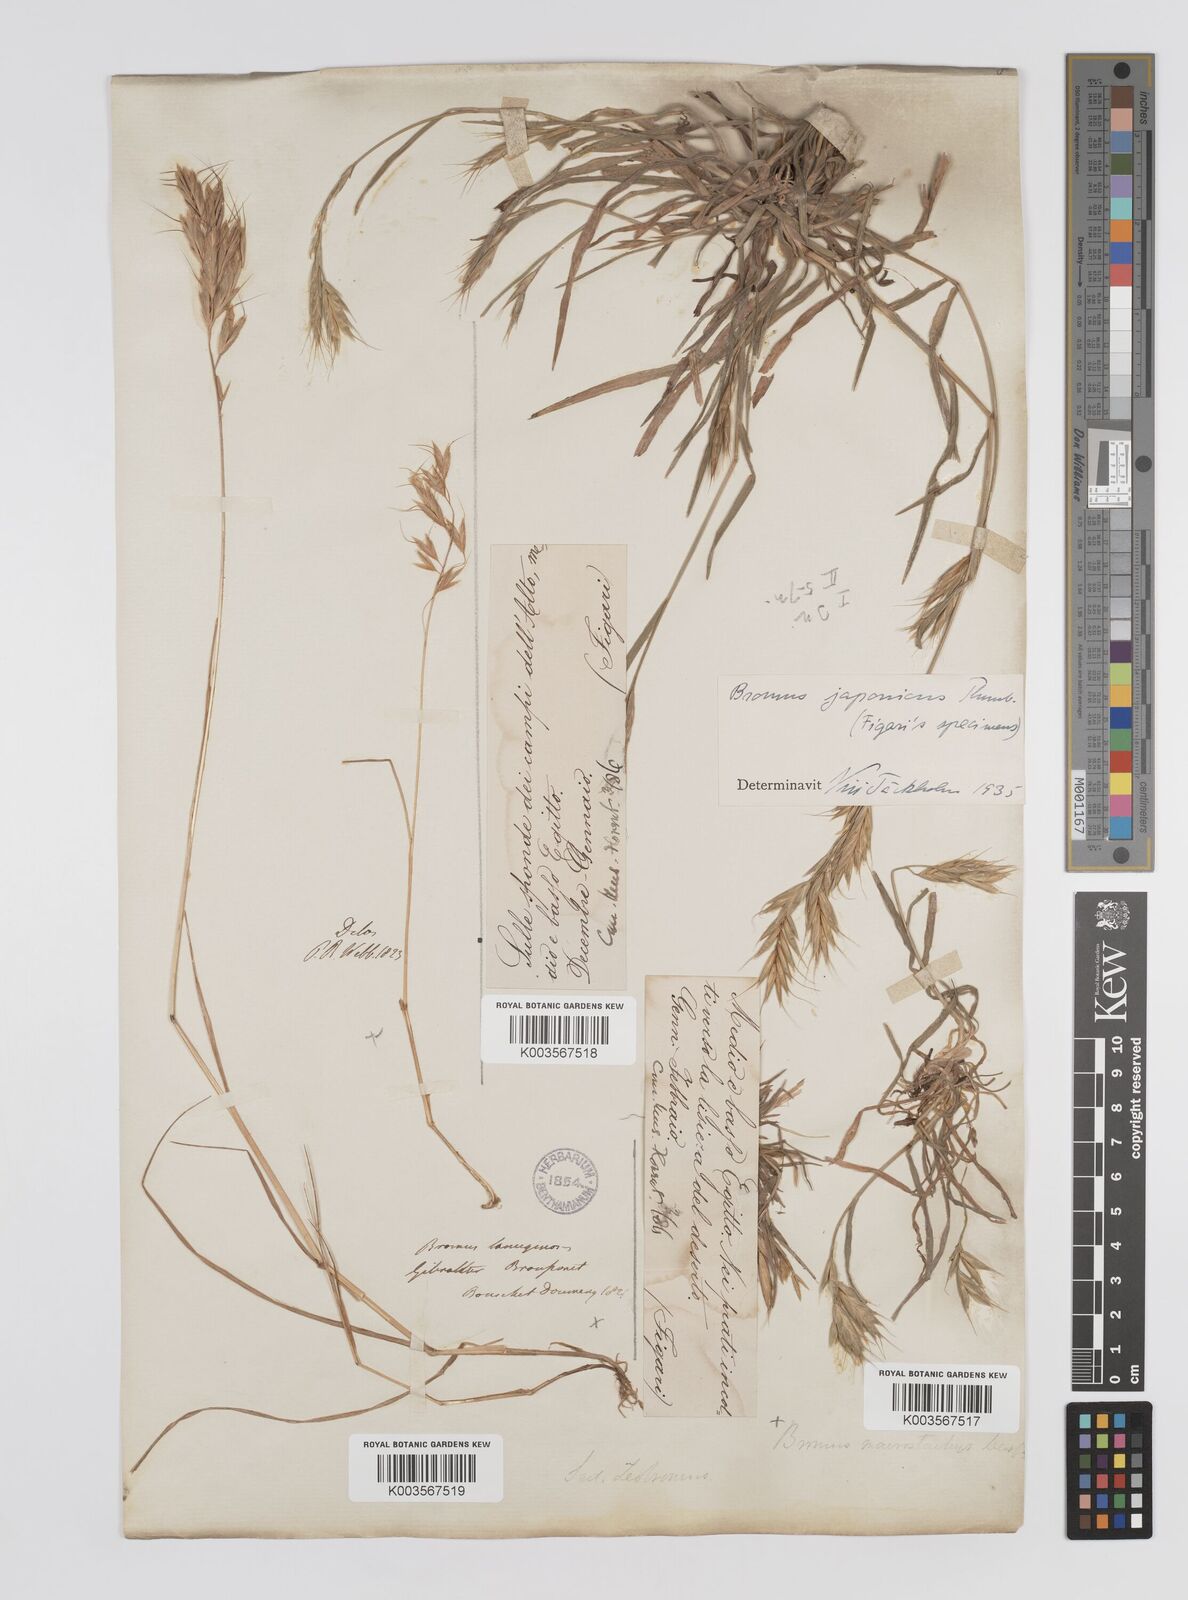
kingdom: Plantae
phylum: Tracheophyta
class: Liliopsida
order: Poales
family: Poaceae
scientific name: Poaceae
